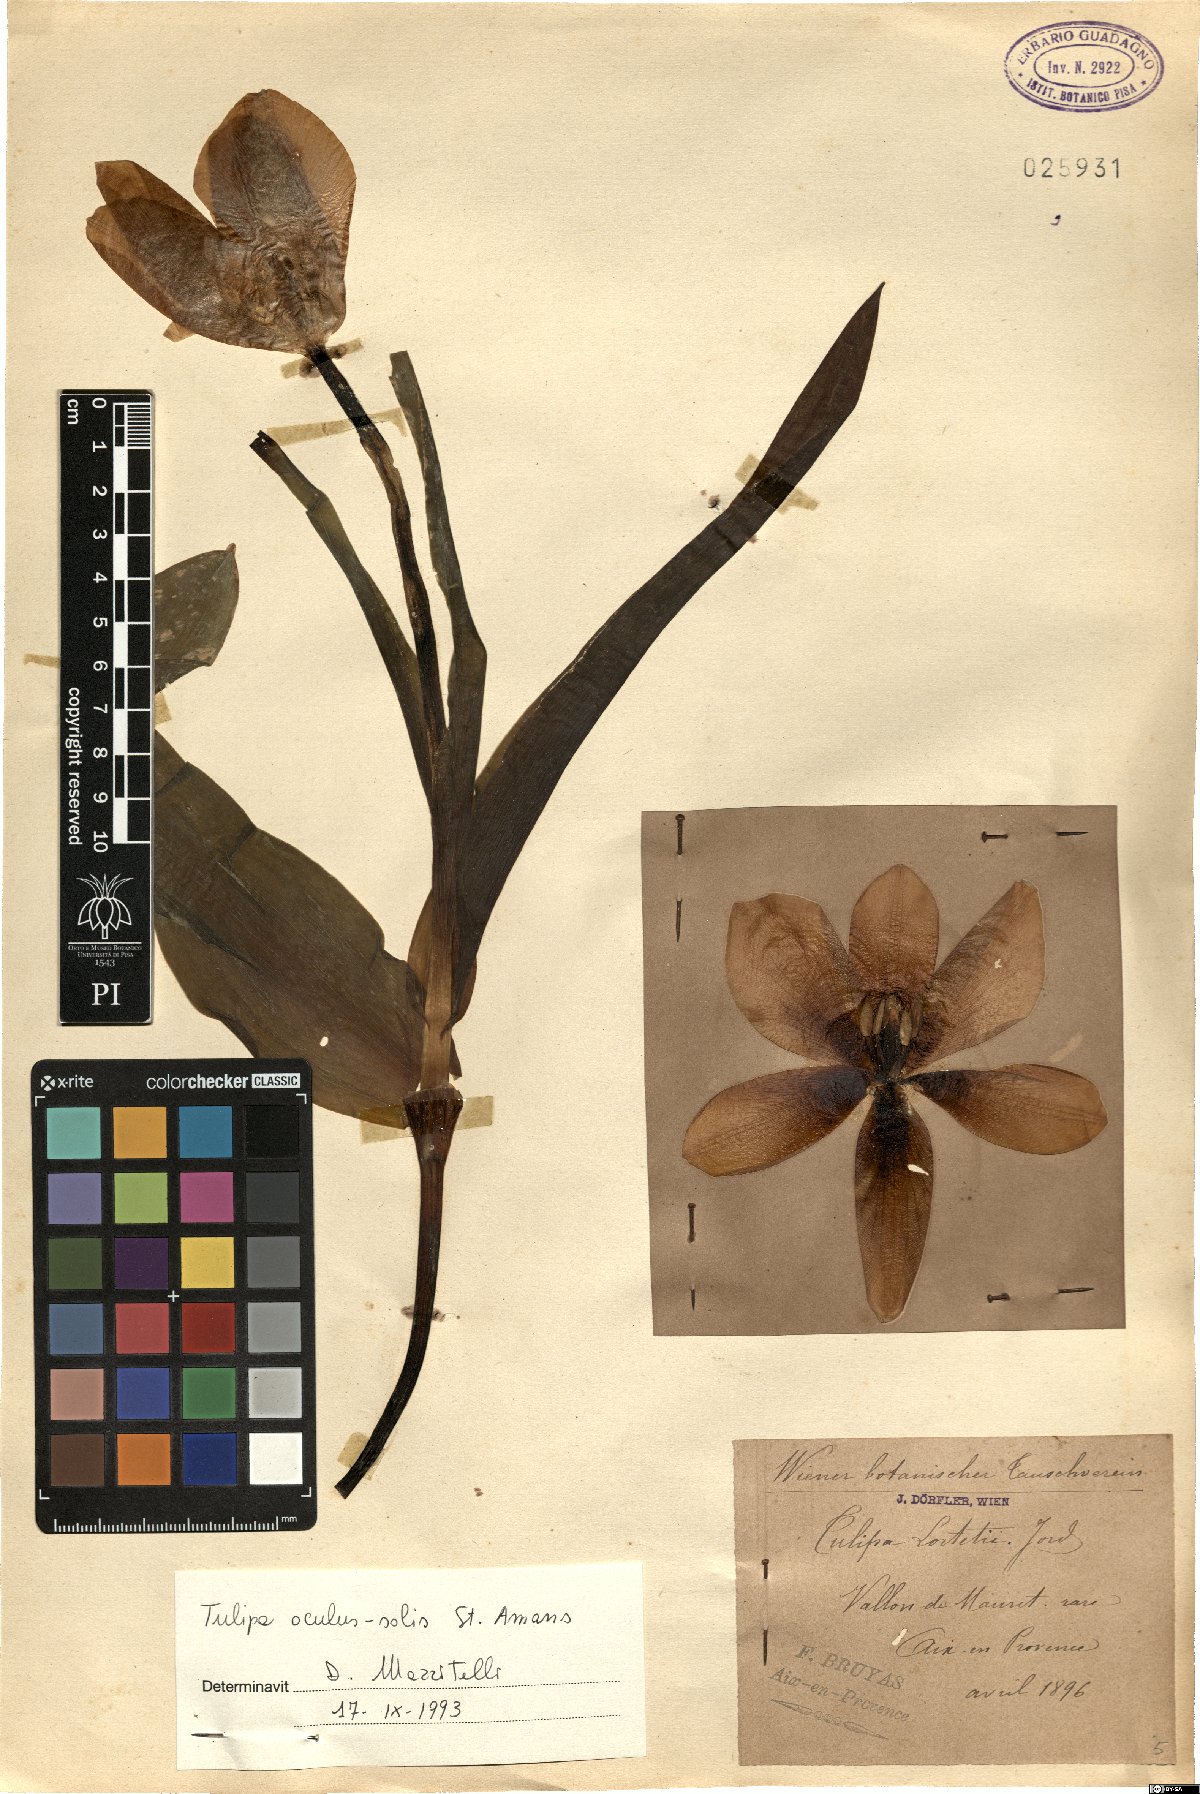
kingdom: Plantae
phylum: Tracheophyta
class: Liliopsida
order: Liliales
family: Liliaceae
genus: Tulipa
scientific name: Tulipa agenensis
